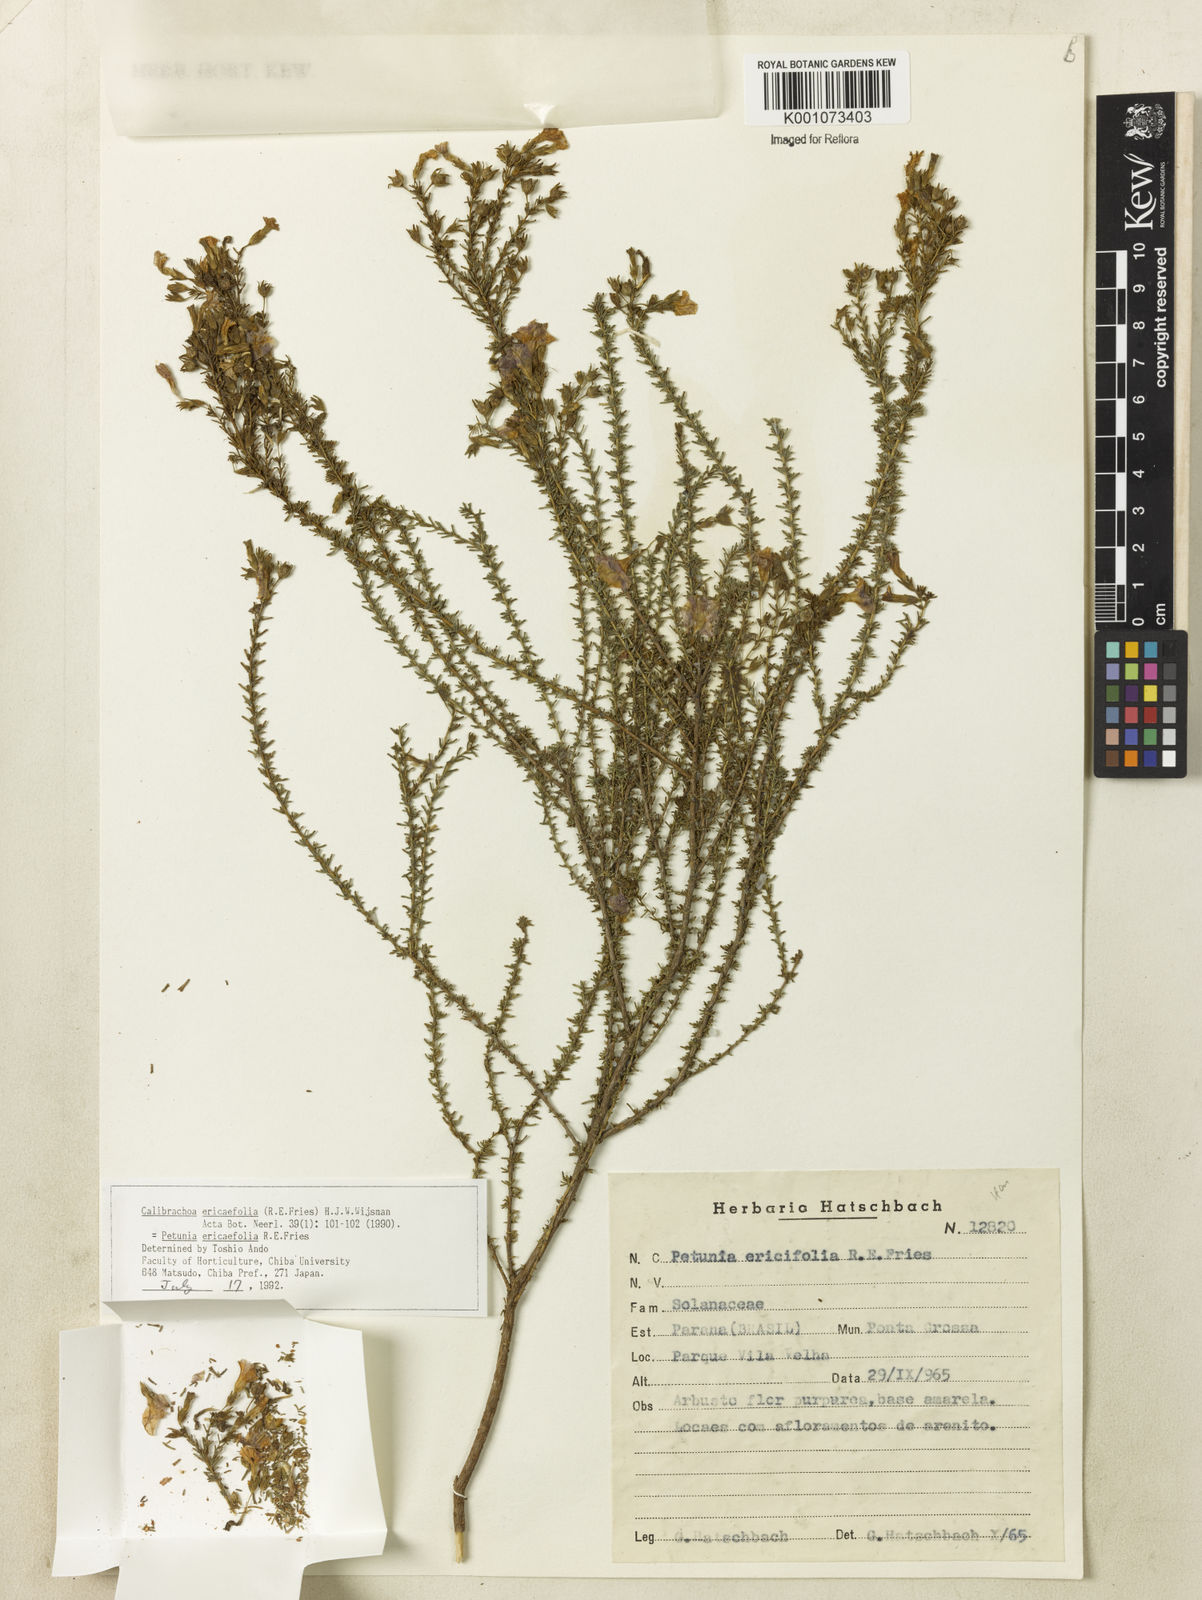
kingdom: Plantae
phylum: Tracheophyta
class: Magnoliopsida
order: Solanales
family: Solanaceae
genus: Calibrachoa
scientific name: Calibrachoa ericifolia
